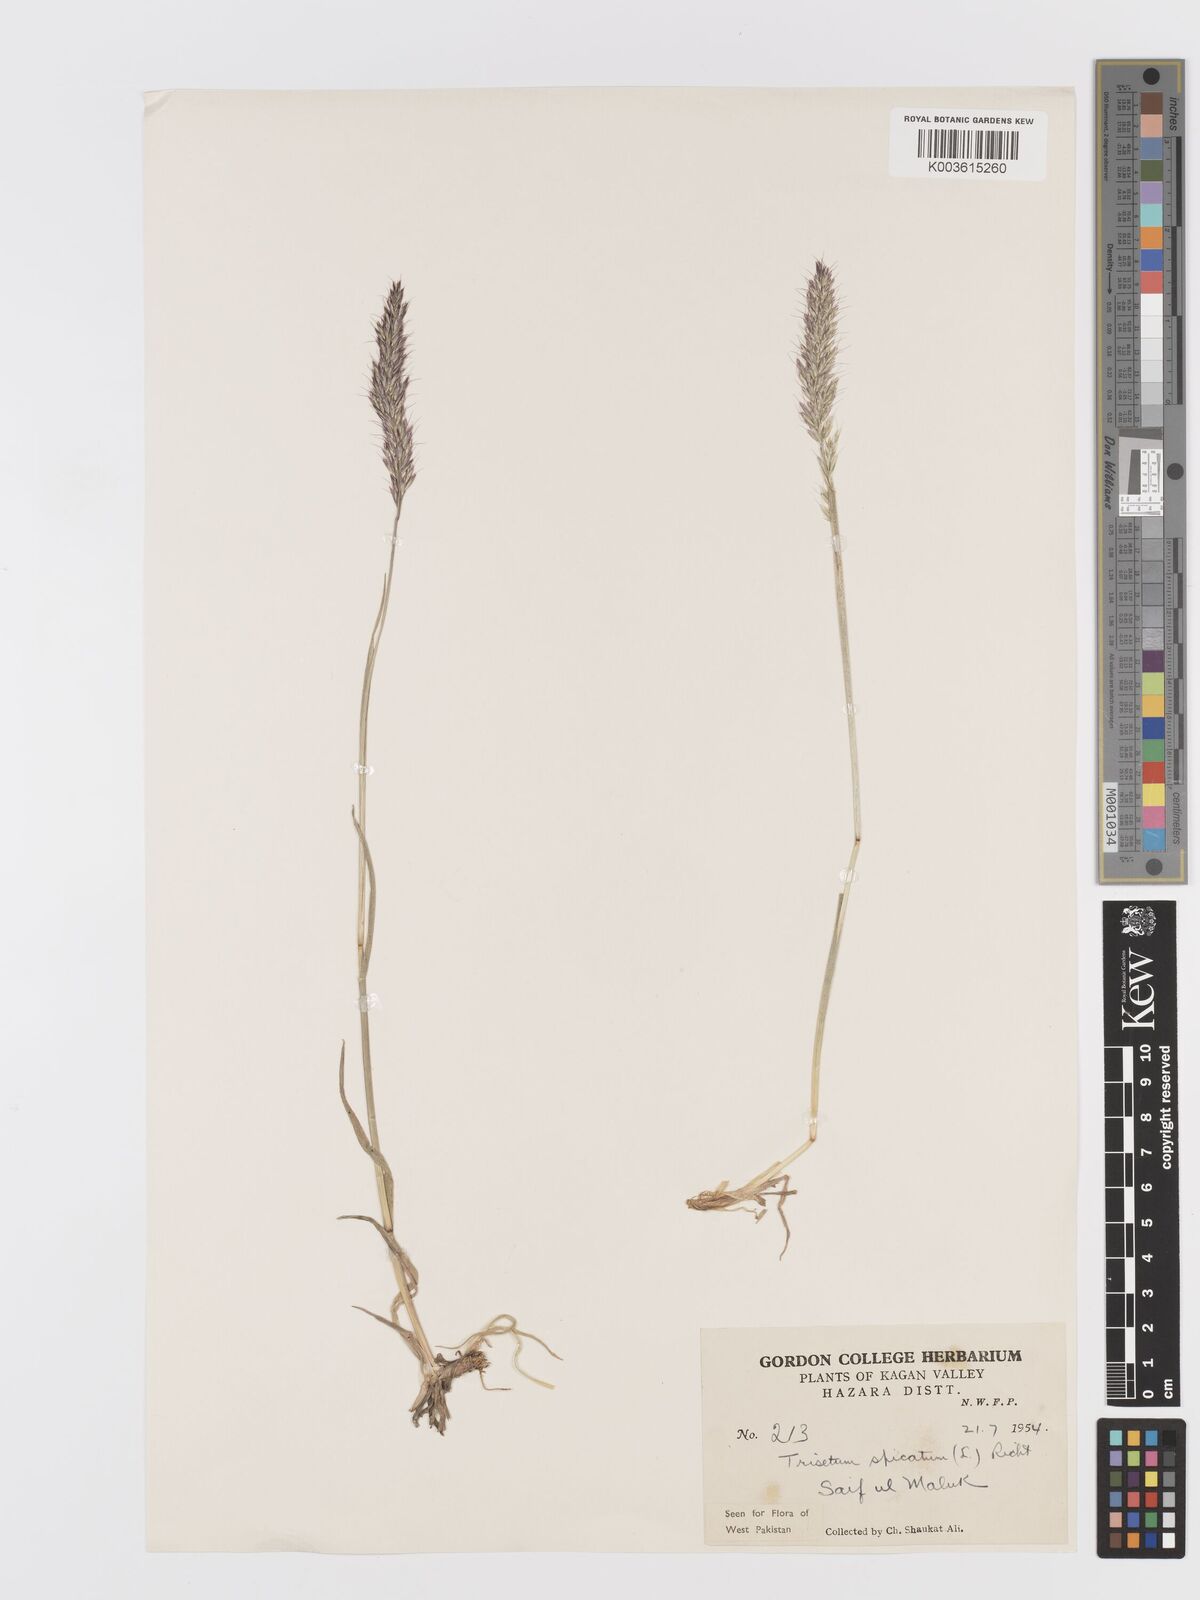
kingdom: Plantae
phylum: Tracheophyta
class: Liliopsida
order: Poales
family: Poaceae
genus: Koeleria
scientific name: Koeleria spicata
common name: Mountain trisetum
